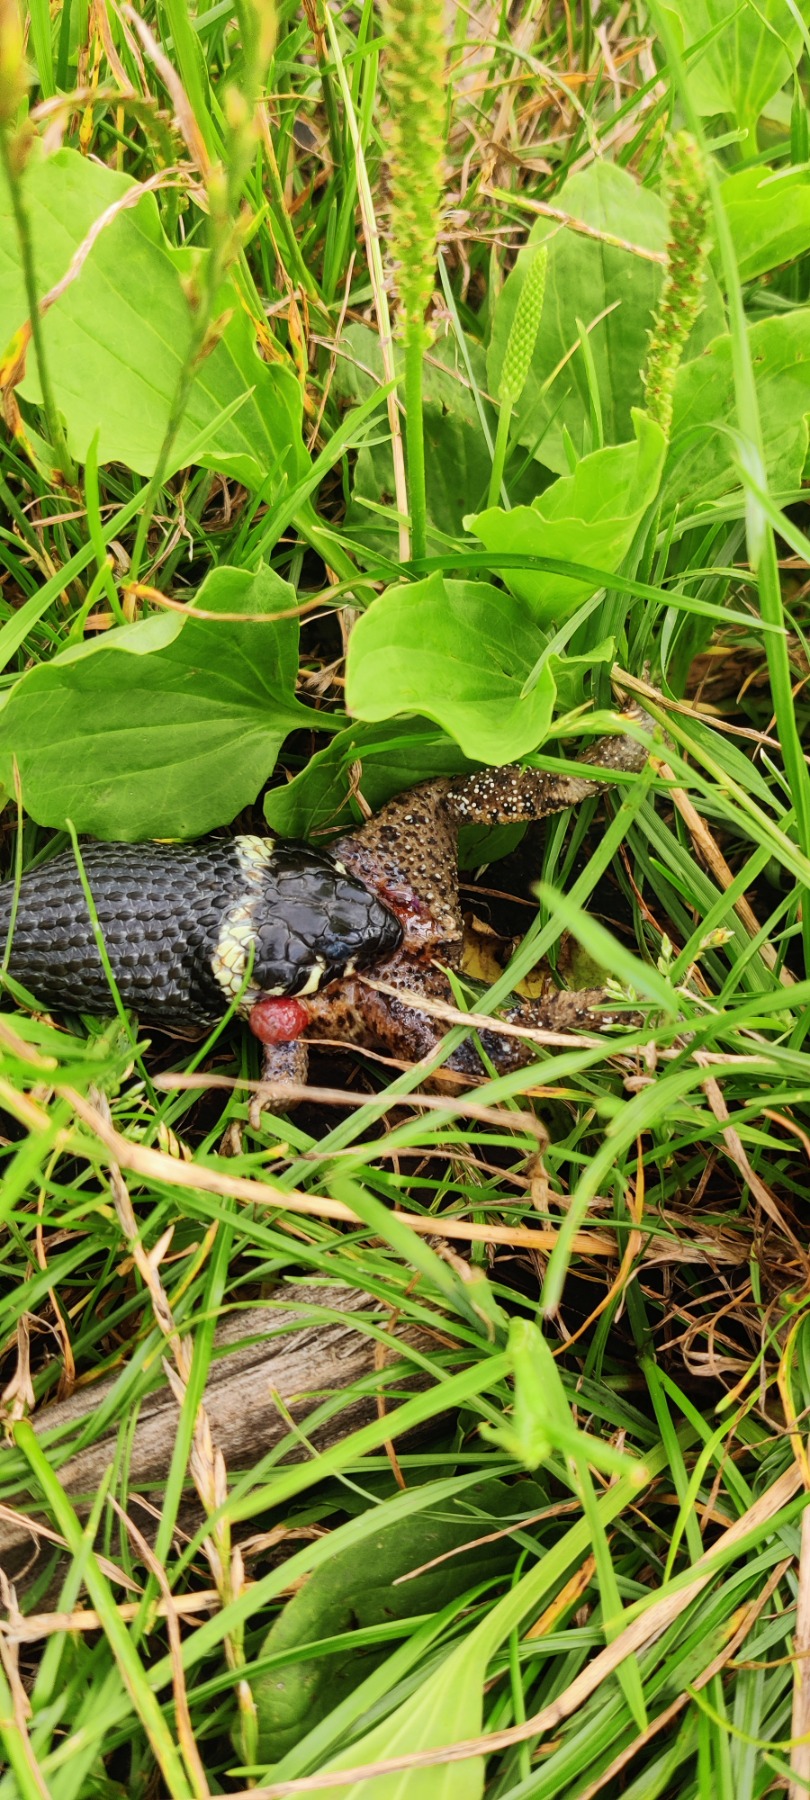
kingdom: Animalia
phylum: Chordata
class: Squamata
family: Colubridae
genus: Natrix
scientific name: Natrix natrix
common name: Snog
